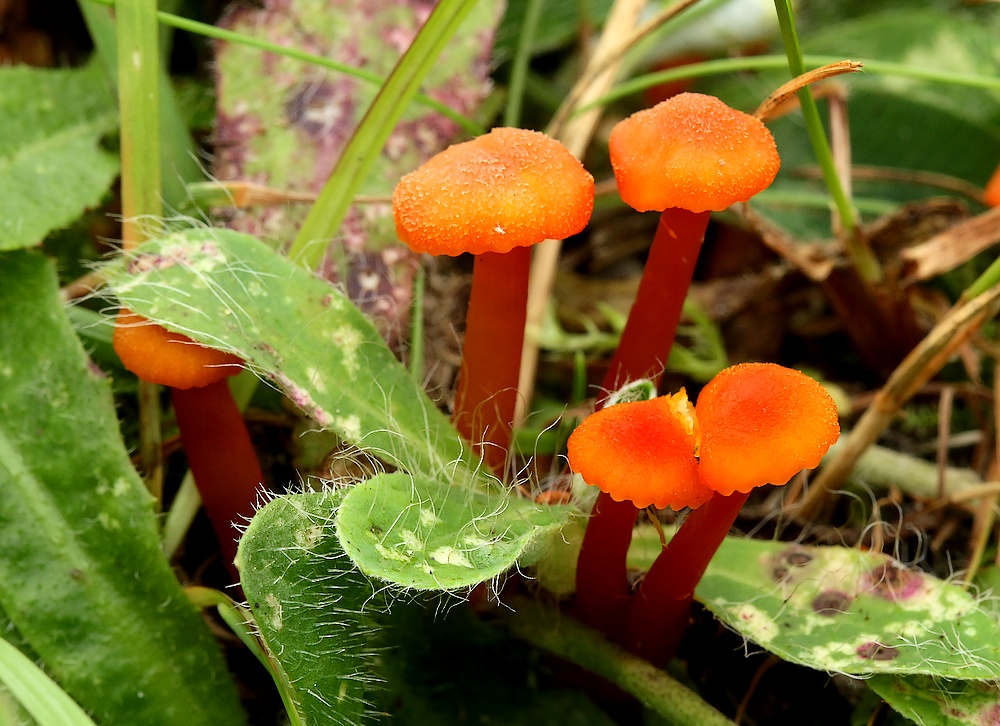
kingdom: Fungi
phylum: Basidiomycota
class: Agaricomycetes
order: Agaricales
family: Hygrophoraceae
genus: Hygrocybe
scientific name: Hygrocybe miniata
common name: mønje-vokshat
